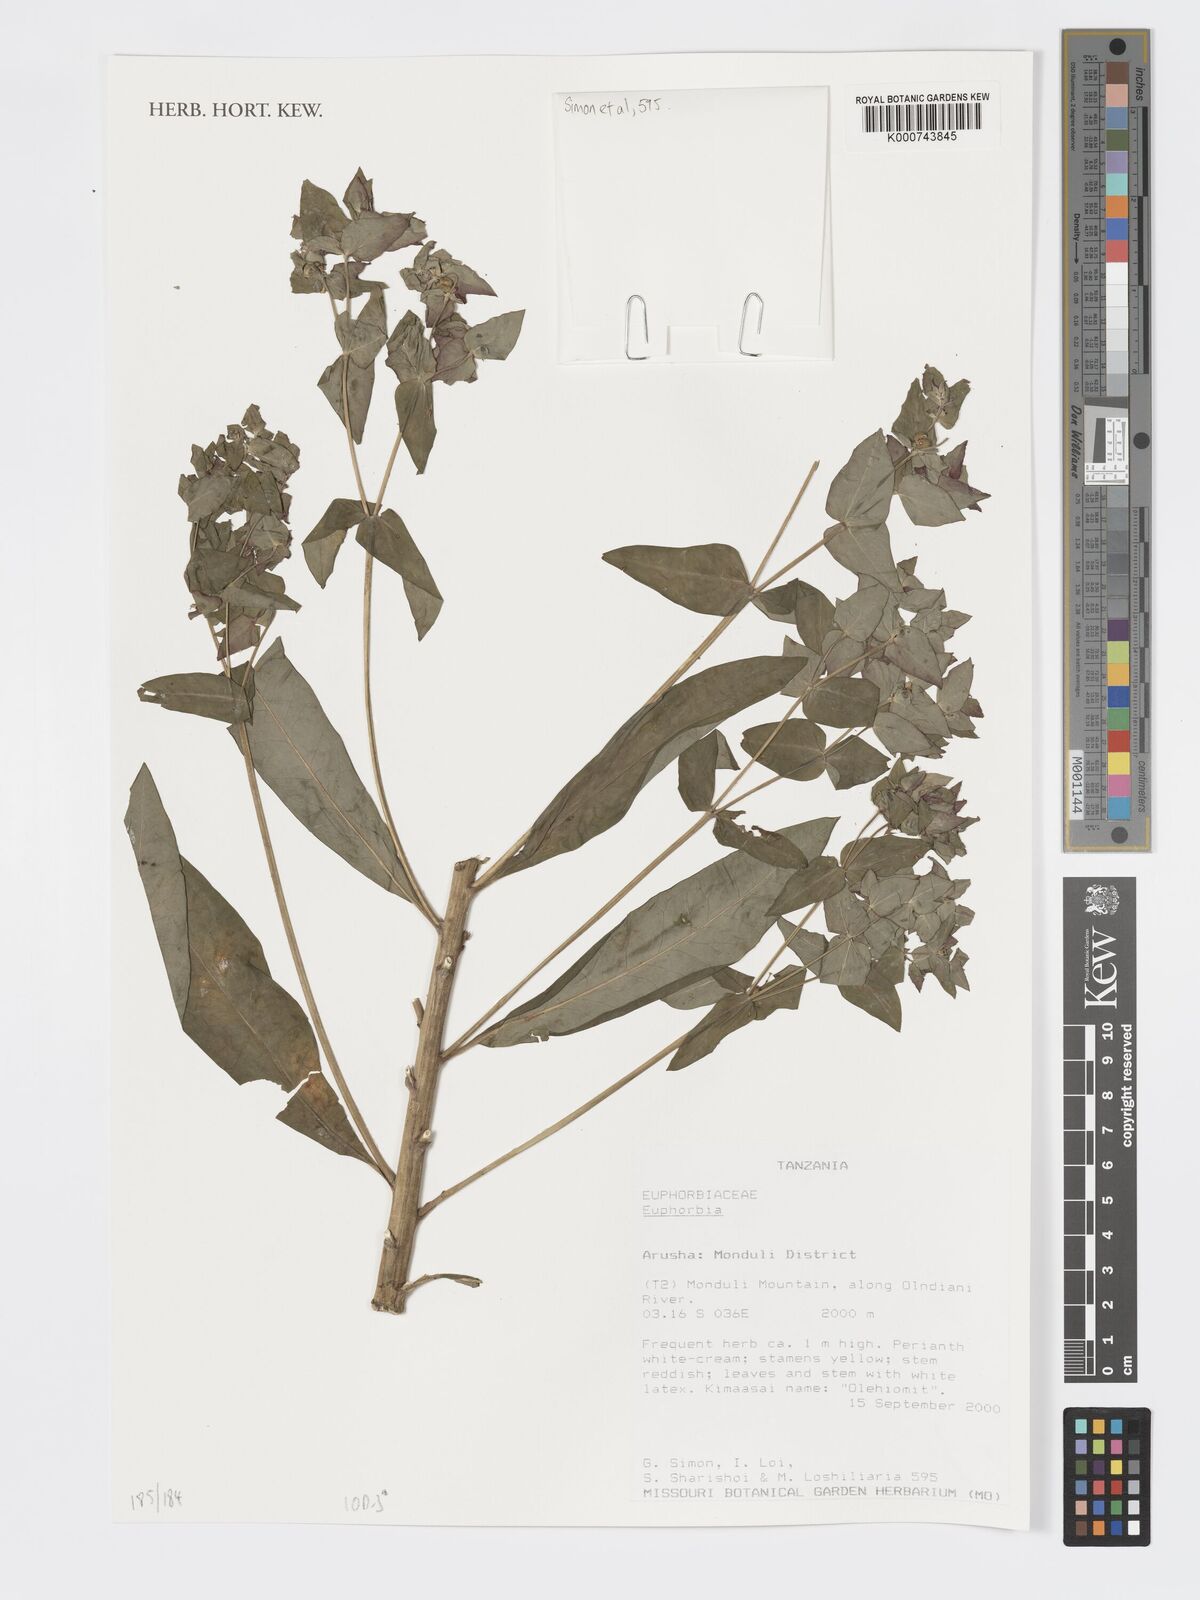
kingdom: Plantae
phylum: Tracheophyta
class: Magnoliopsida
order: Malpighiales
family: Euphorbiaceae
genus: Euphorbia
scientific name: Euphorbia
